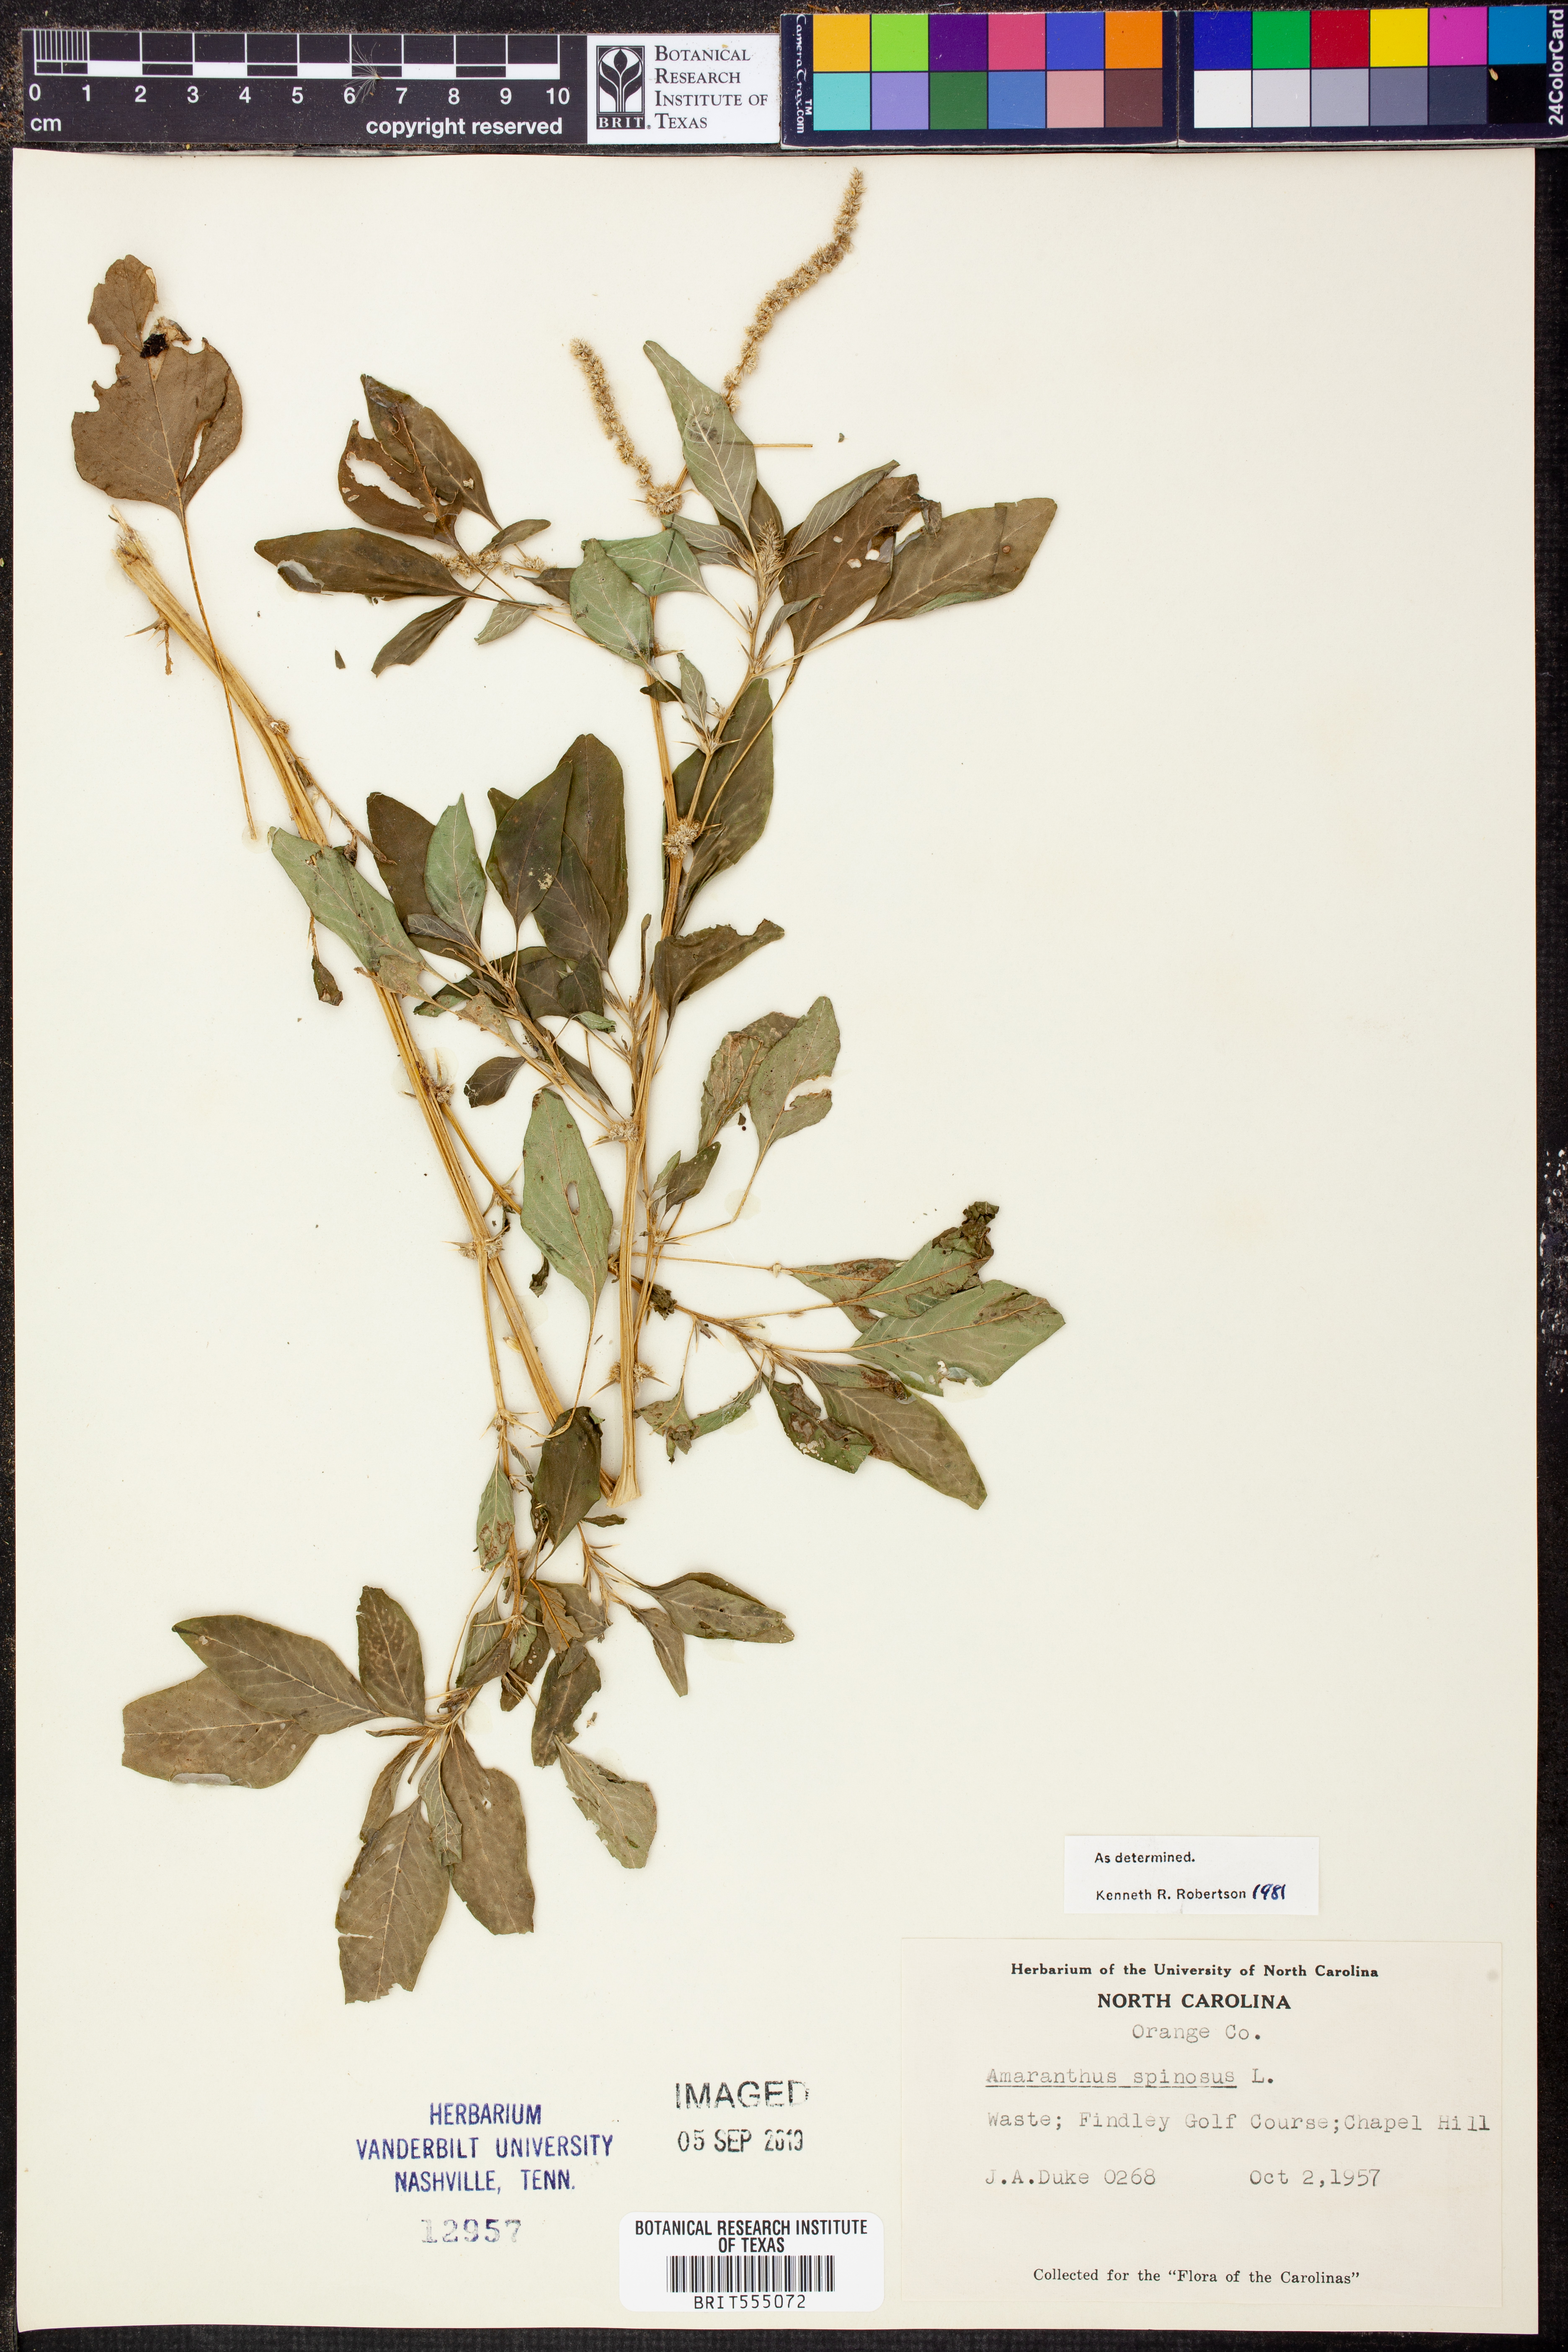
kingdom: Plantae
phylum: Tracheophyta
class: Magnoliopsida
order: Caryophyllales
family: Amaranthaceae
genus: Amaranthus
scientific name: Amaranthus spinosus
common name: Spiny amaranth
